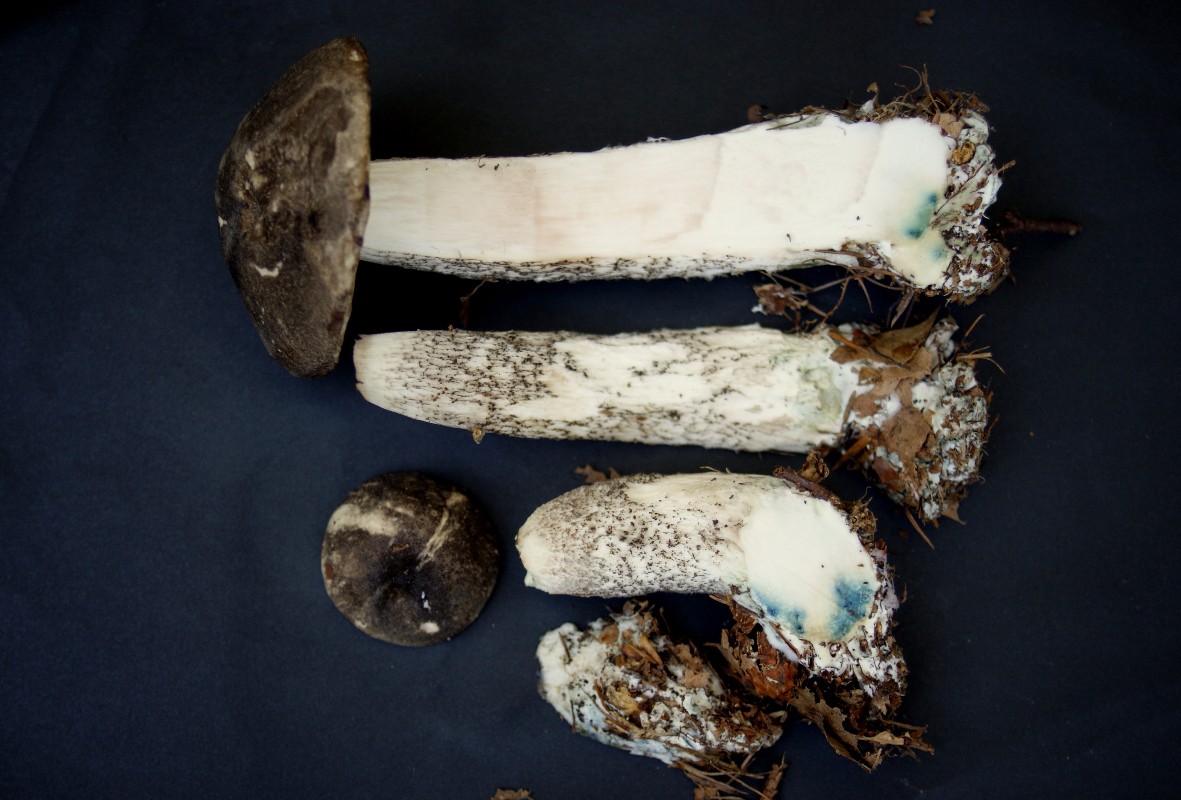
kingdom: Fungi
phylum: Basidiomycota
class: Agaricomycetes
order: Boletales
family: Boletaceae
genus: Leccinum
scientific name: Leccinum variicolor
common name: flammet skælrørhat
